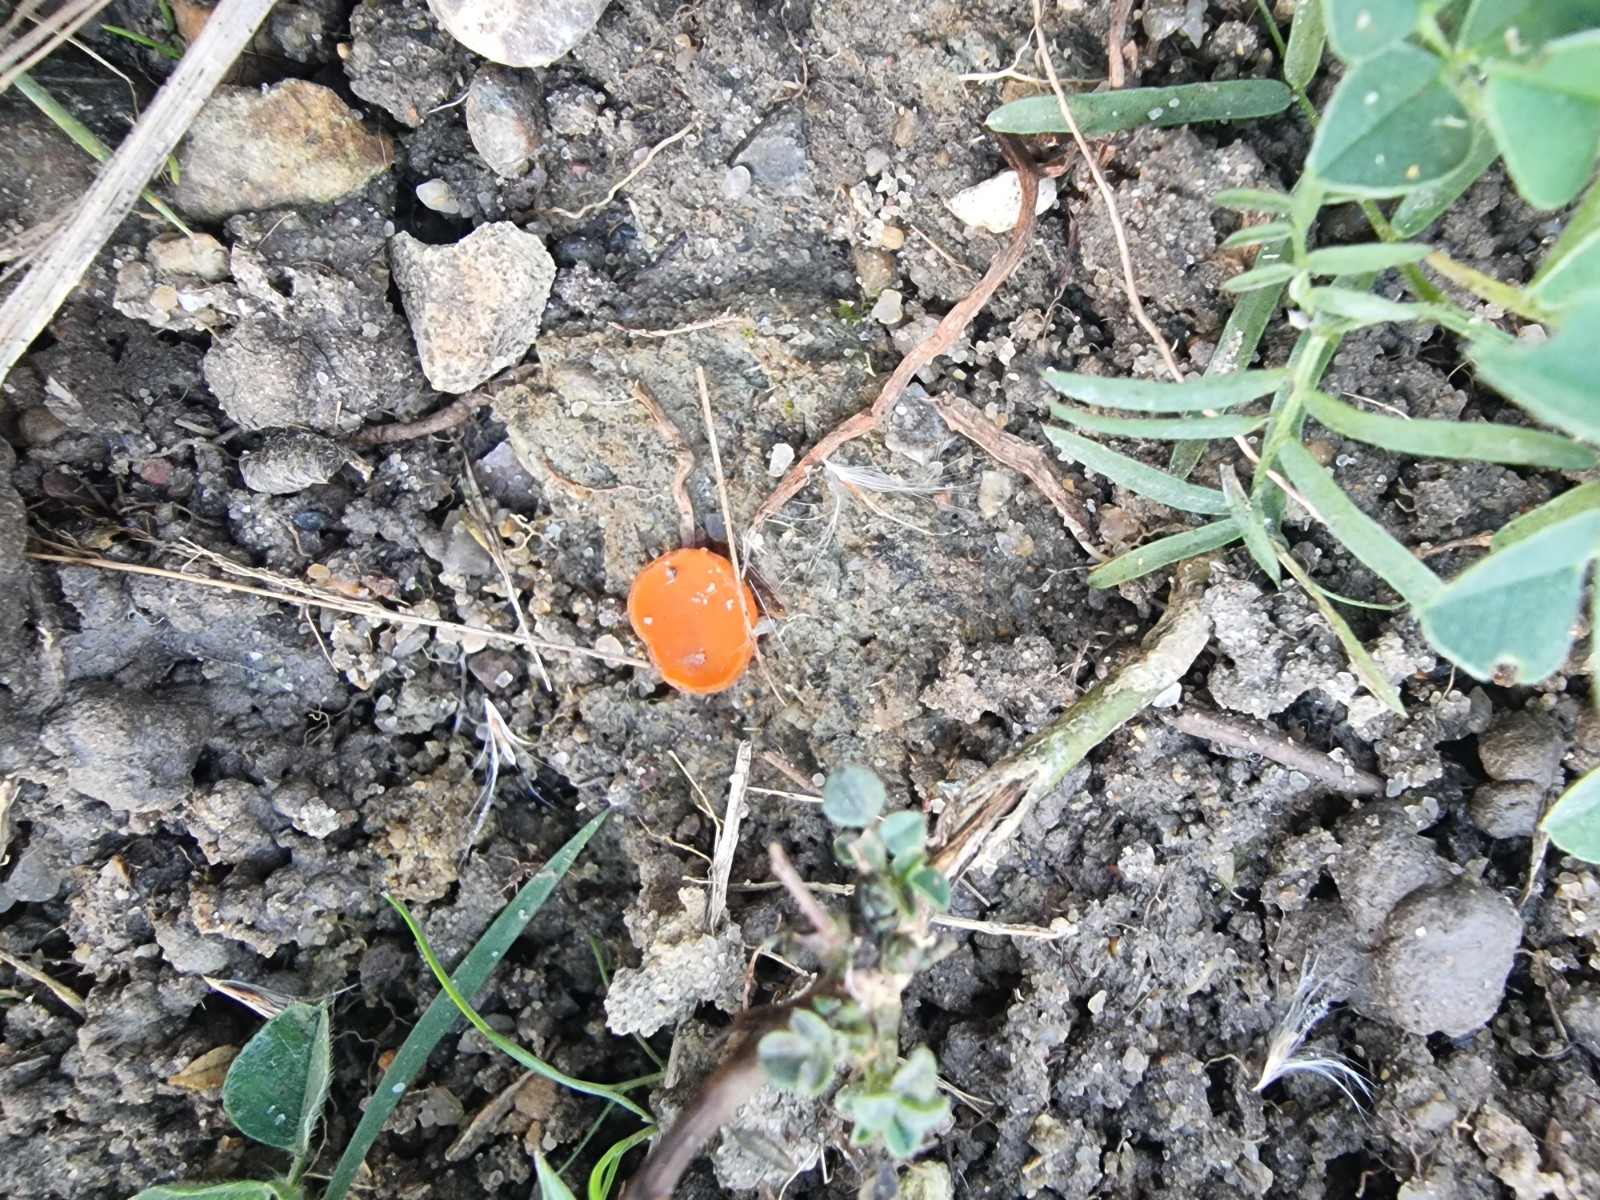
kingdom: Fungi
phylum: Ascomycota
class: Pezizomycetes
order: Pezizales
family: Pyronemataceae
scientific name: Pyronemataceae
